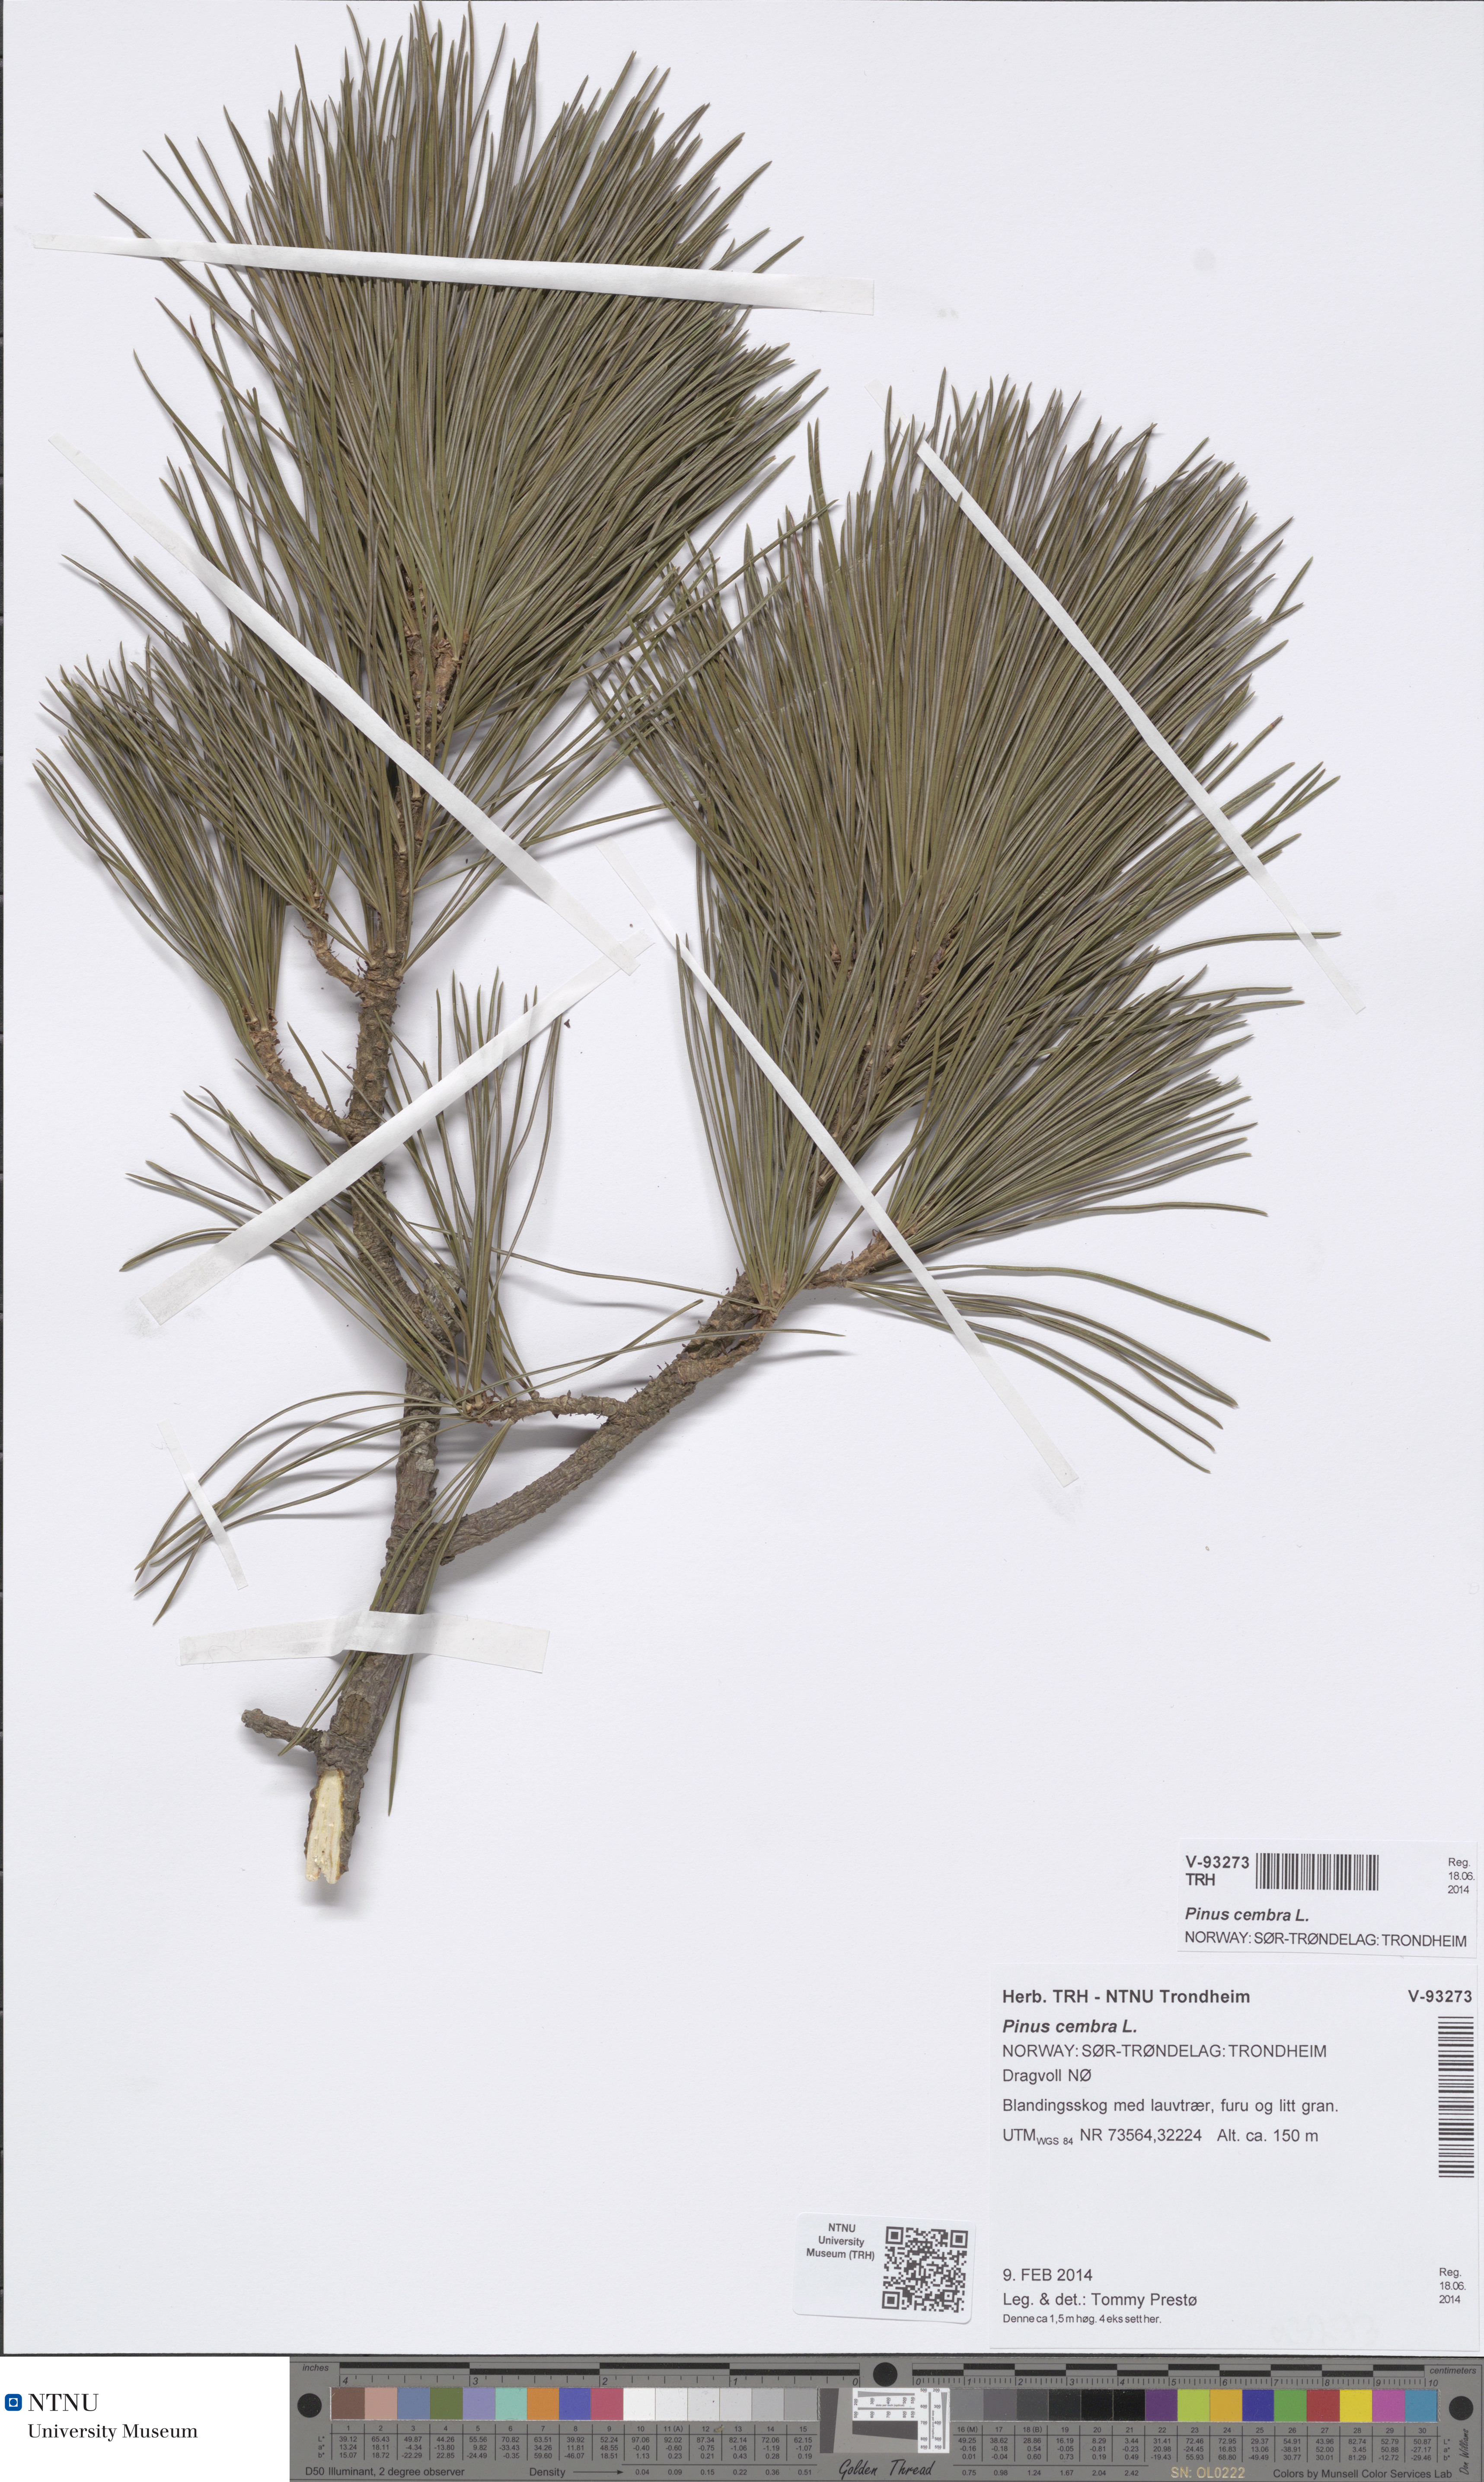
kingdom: Plantae
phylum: Tracheophyta
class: Pinopsida
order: Pinales
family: Pinaceae
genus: Pinus
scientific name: Pinus cembra
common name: Arolla pine
